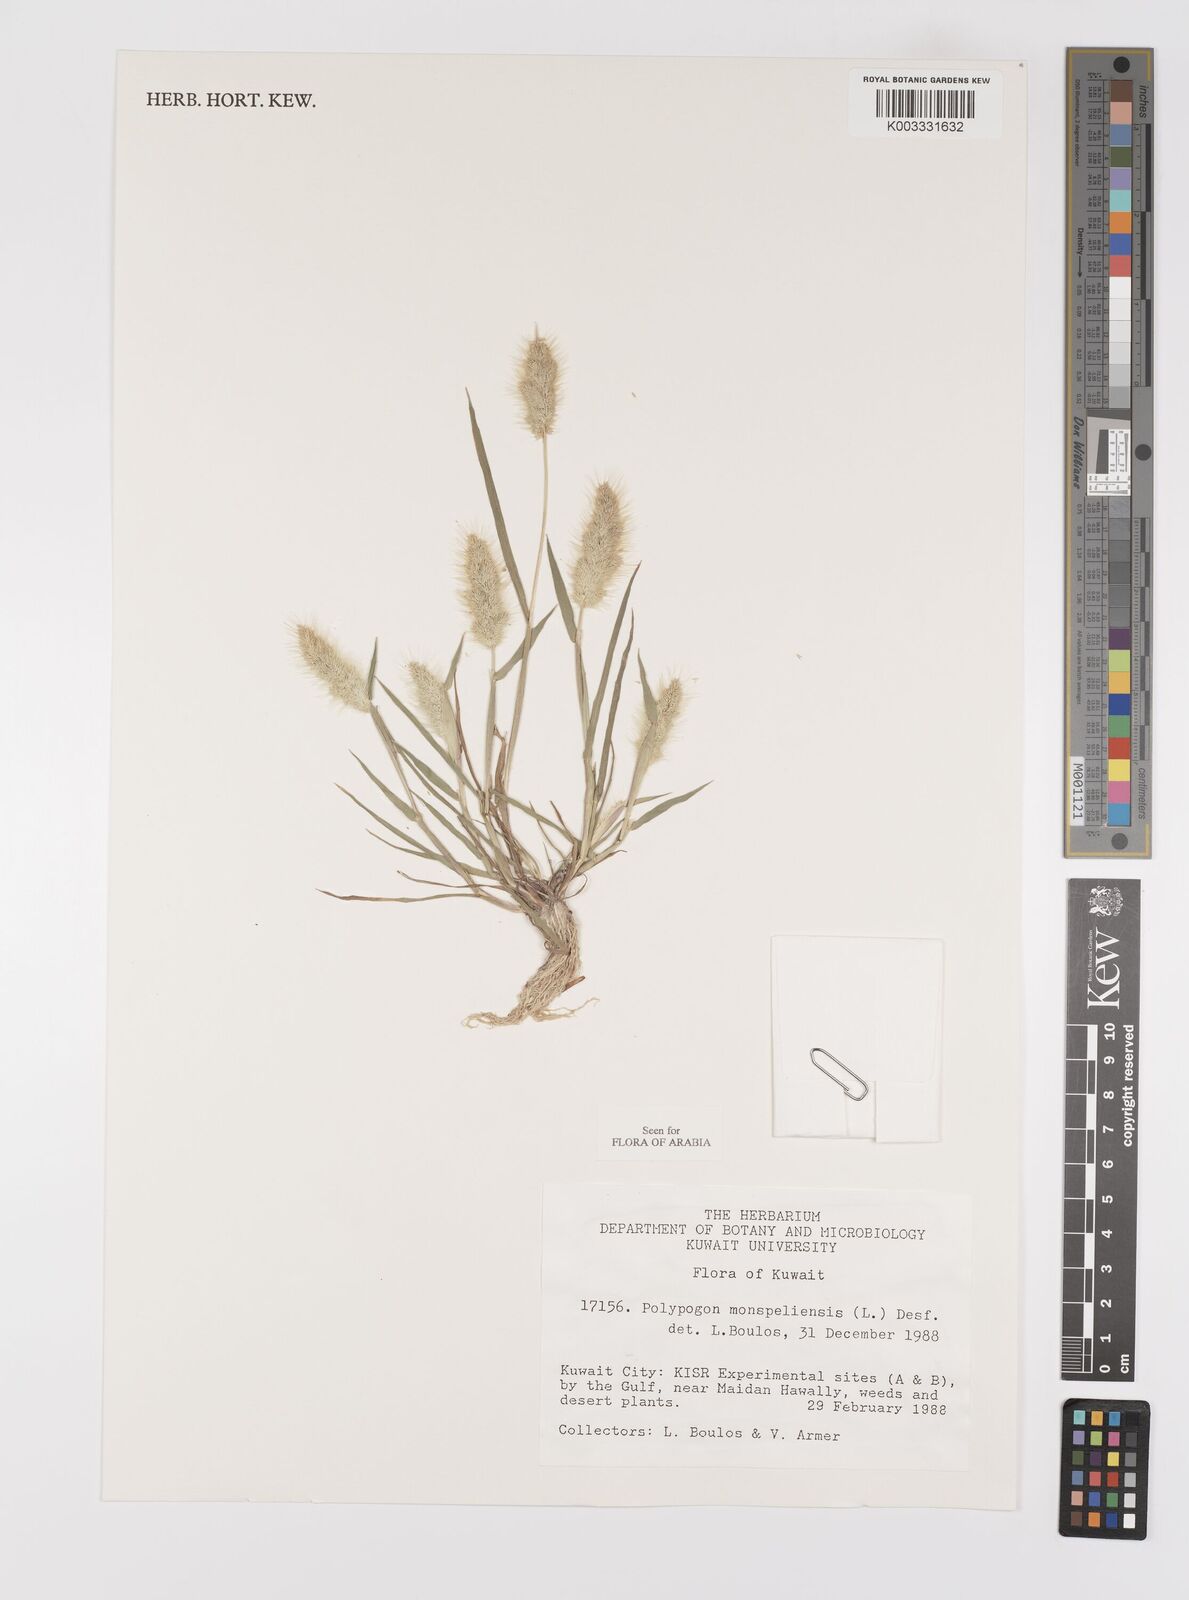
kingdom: Plantae
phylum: Tracheophyta
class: Liliopsida
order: Poales
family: Poaceae
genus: Polypogon
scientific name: Polypogon monspeliensis
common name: Annual rabbitsfoot grass
